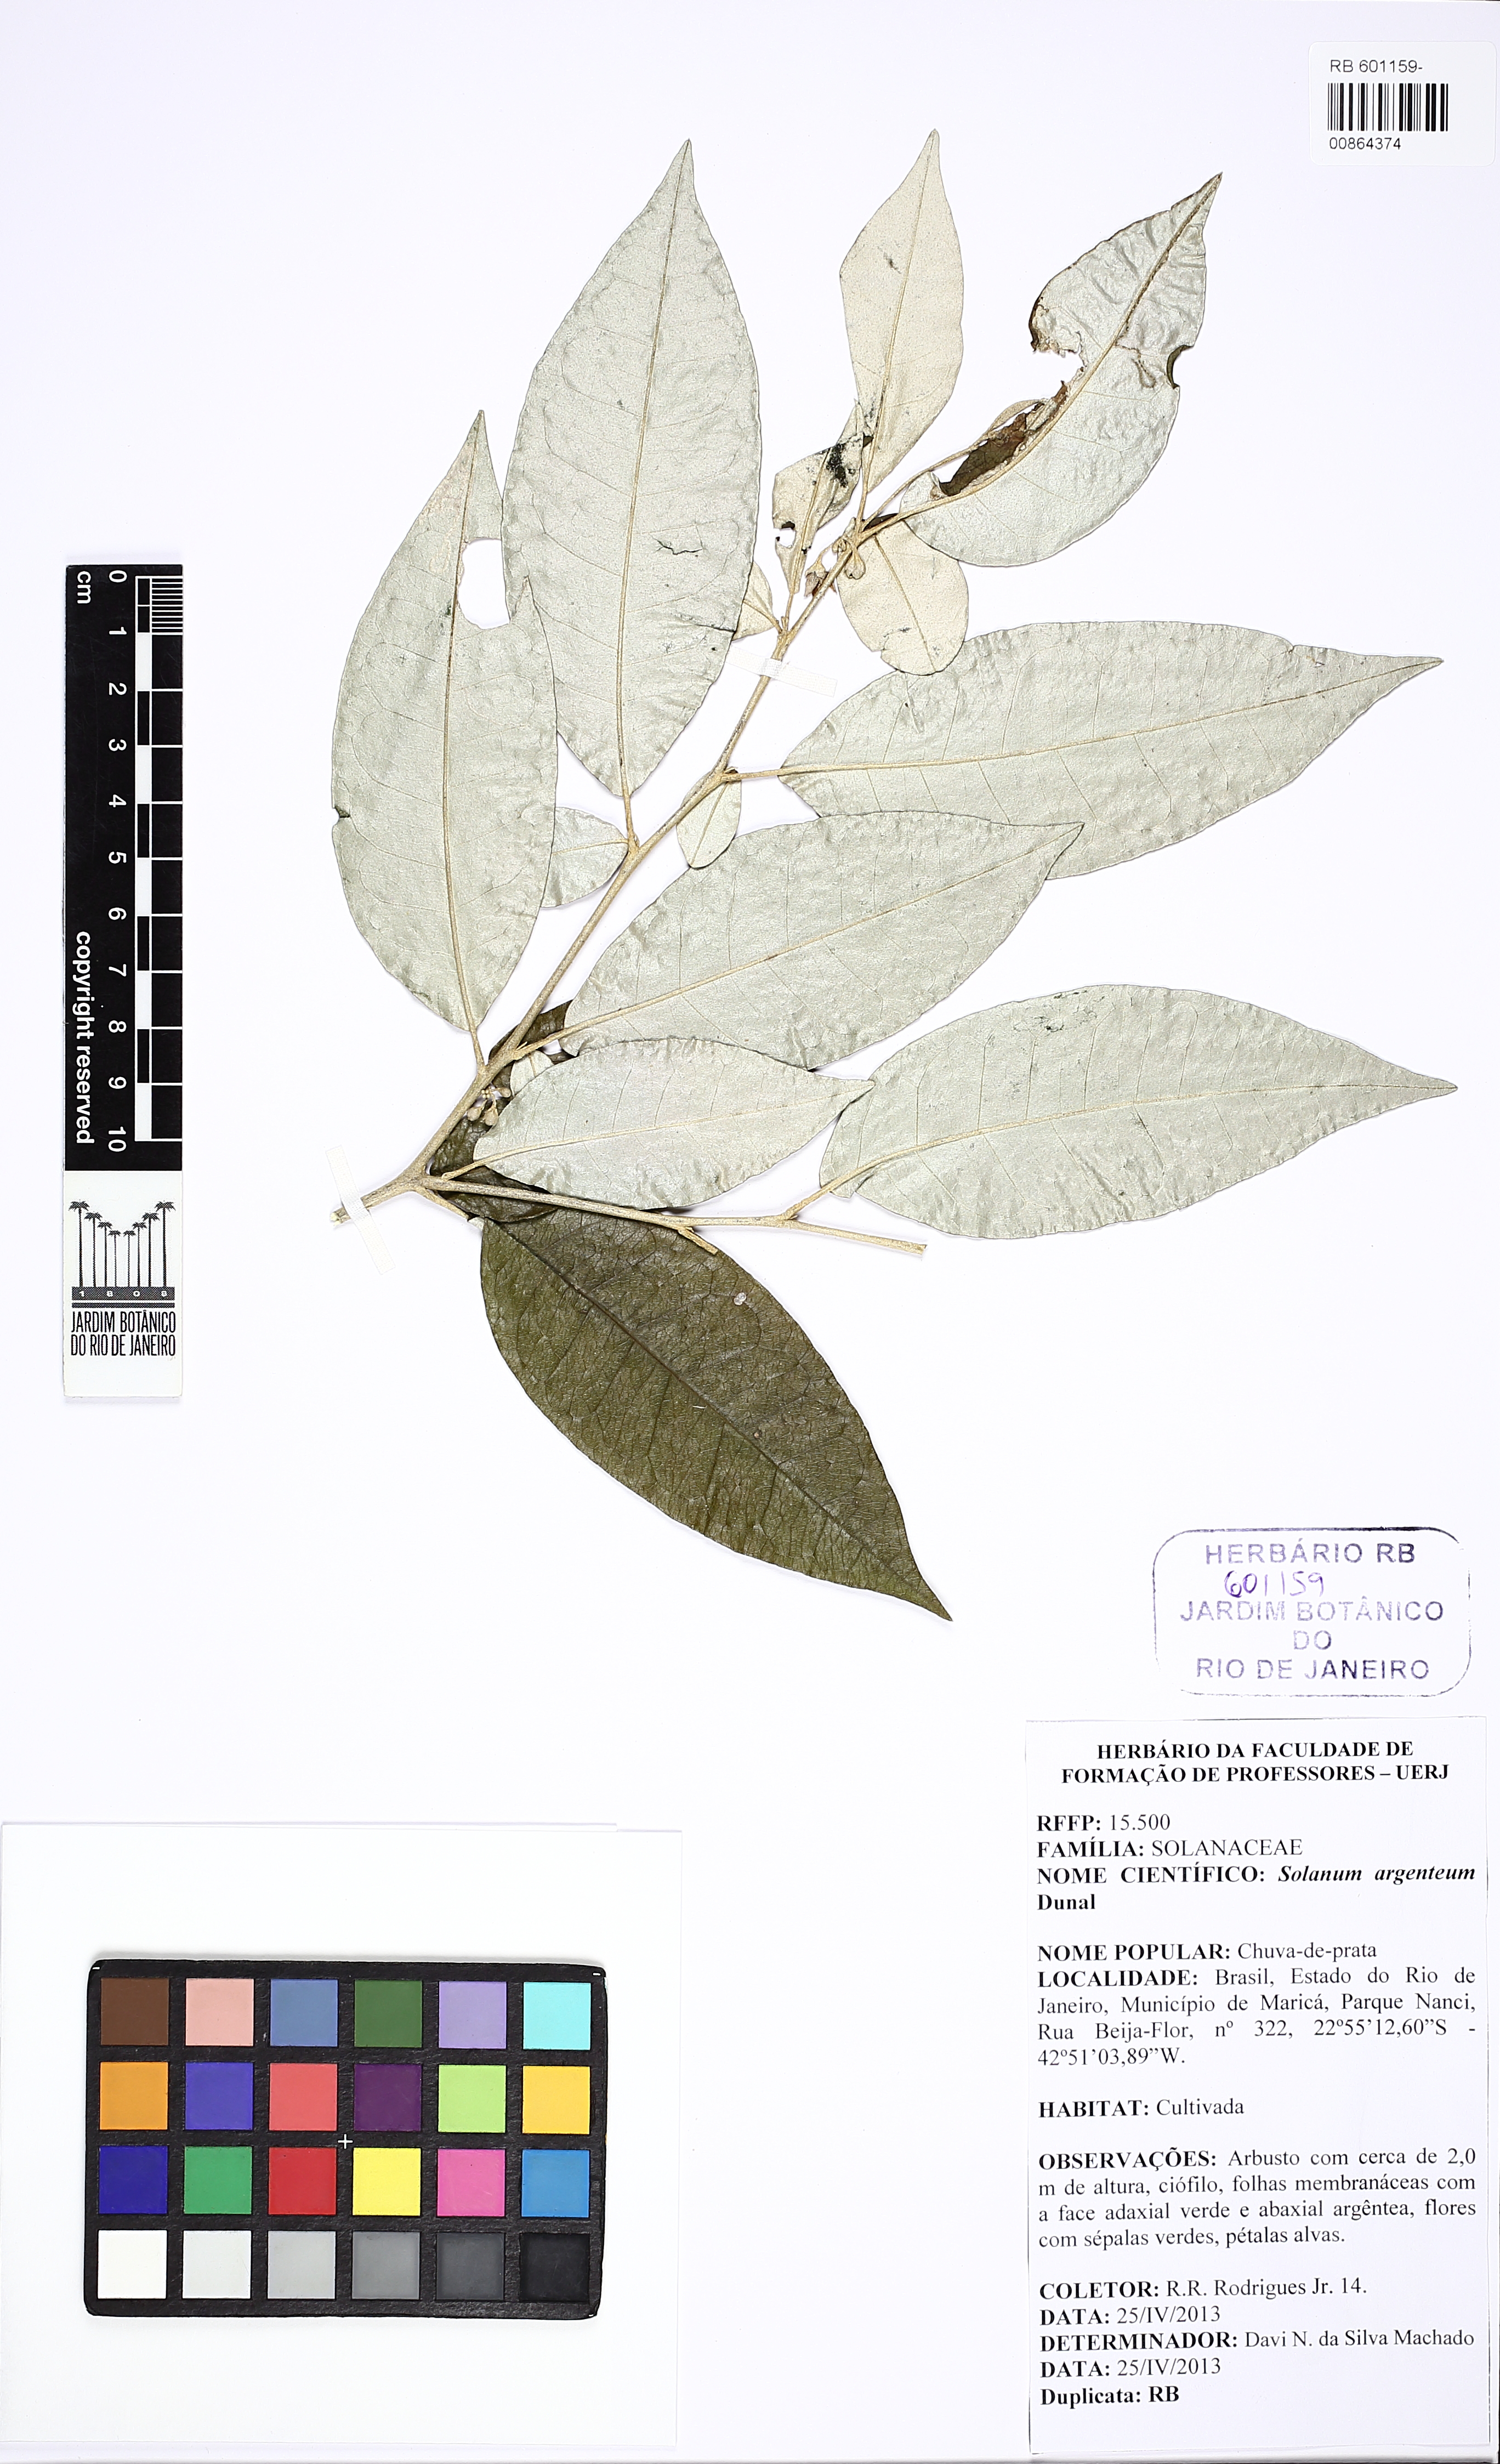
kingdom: Plantae
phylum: Tracheophyta
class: Magnoliopsida
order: Solanales
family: Solanaceae
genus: Solanum
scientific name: Solanum swartzianum
